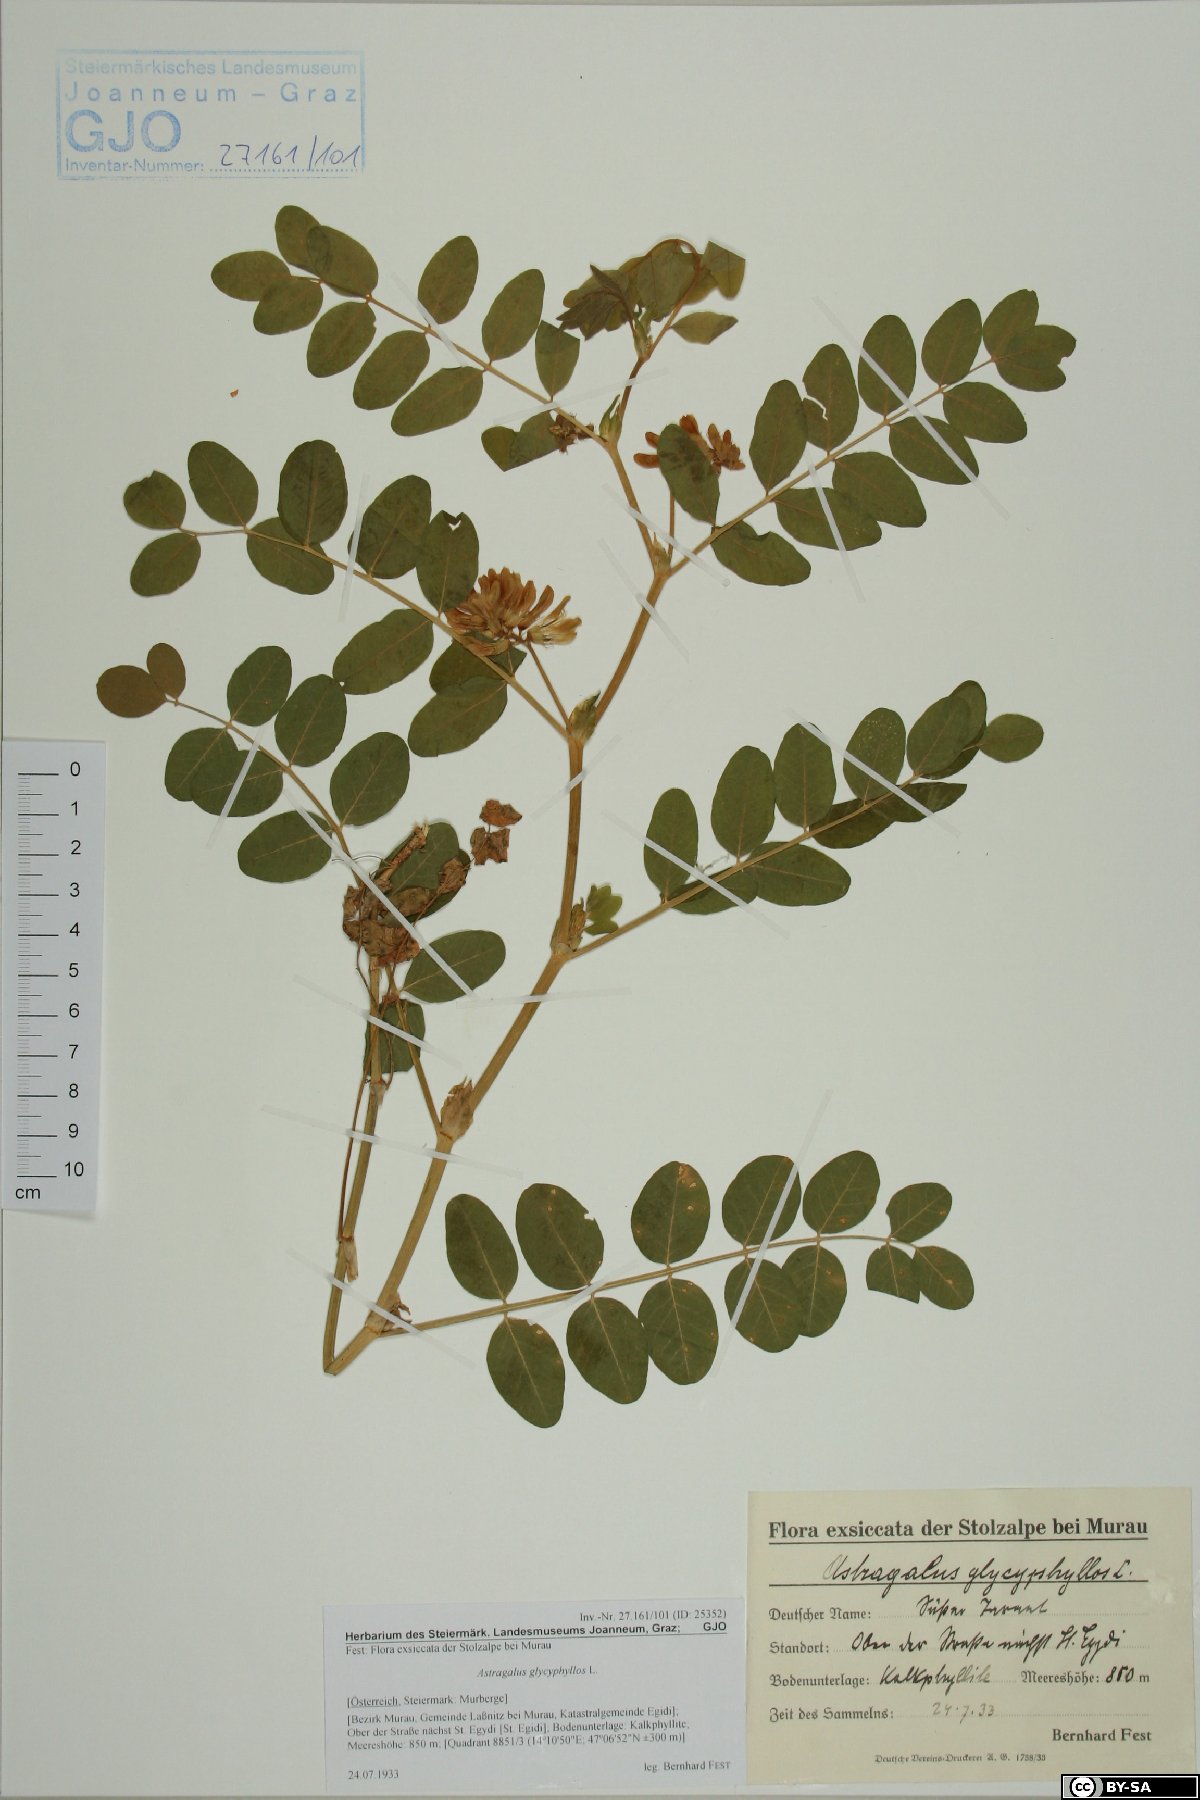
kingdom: Plantae
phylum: Tracheophyta
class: Magnoliopsida
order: Fabales
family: Fabaceae
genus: Astragalus
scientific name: Astragalus glycyphyllos
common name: Wild liquorice
